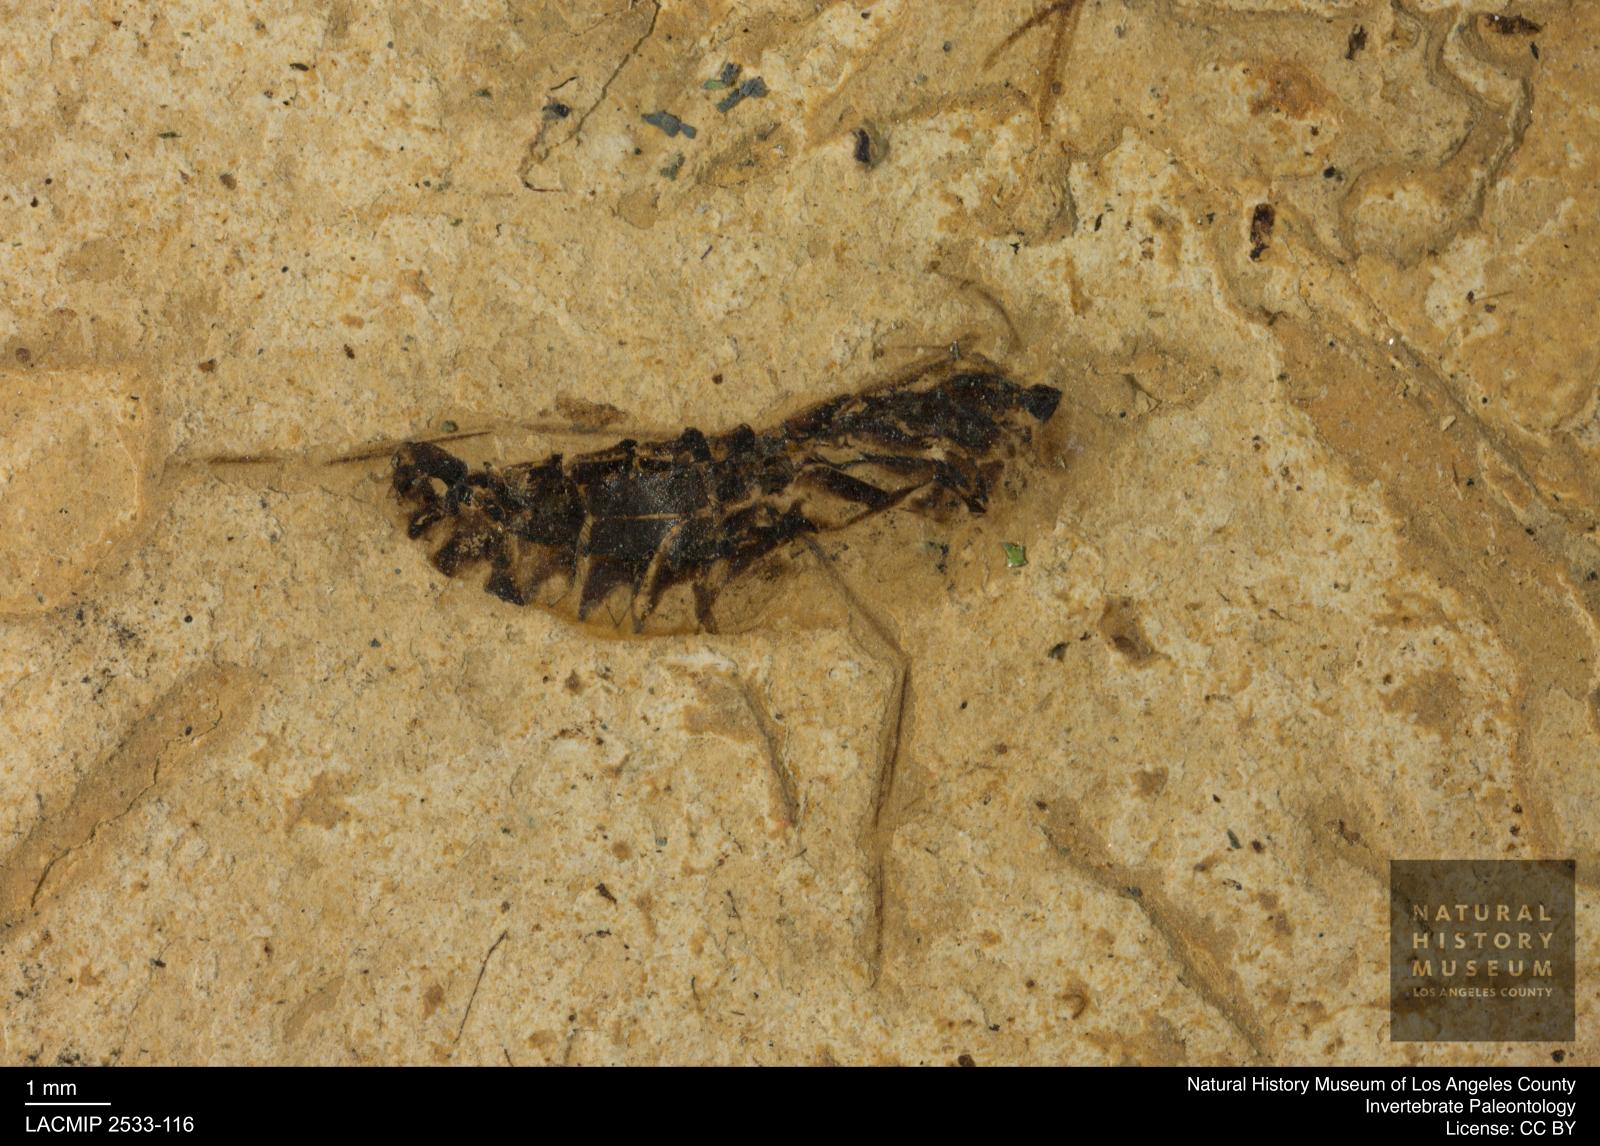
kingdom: Animalia
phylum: Arthropoda
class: Insecta
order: Hemiptera
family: Notonectidae
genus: Anisops
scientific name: Anisops Notonecta heydeni
